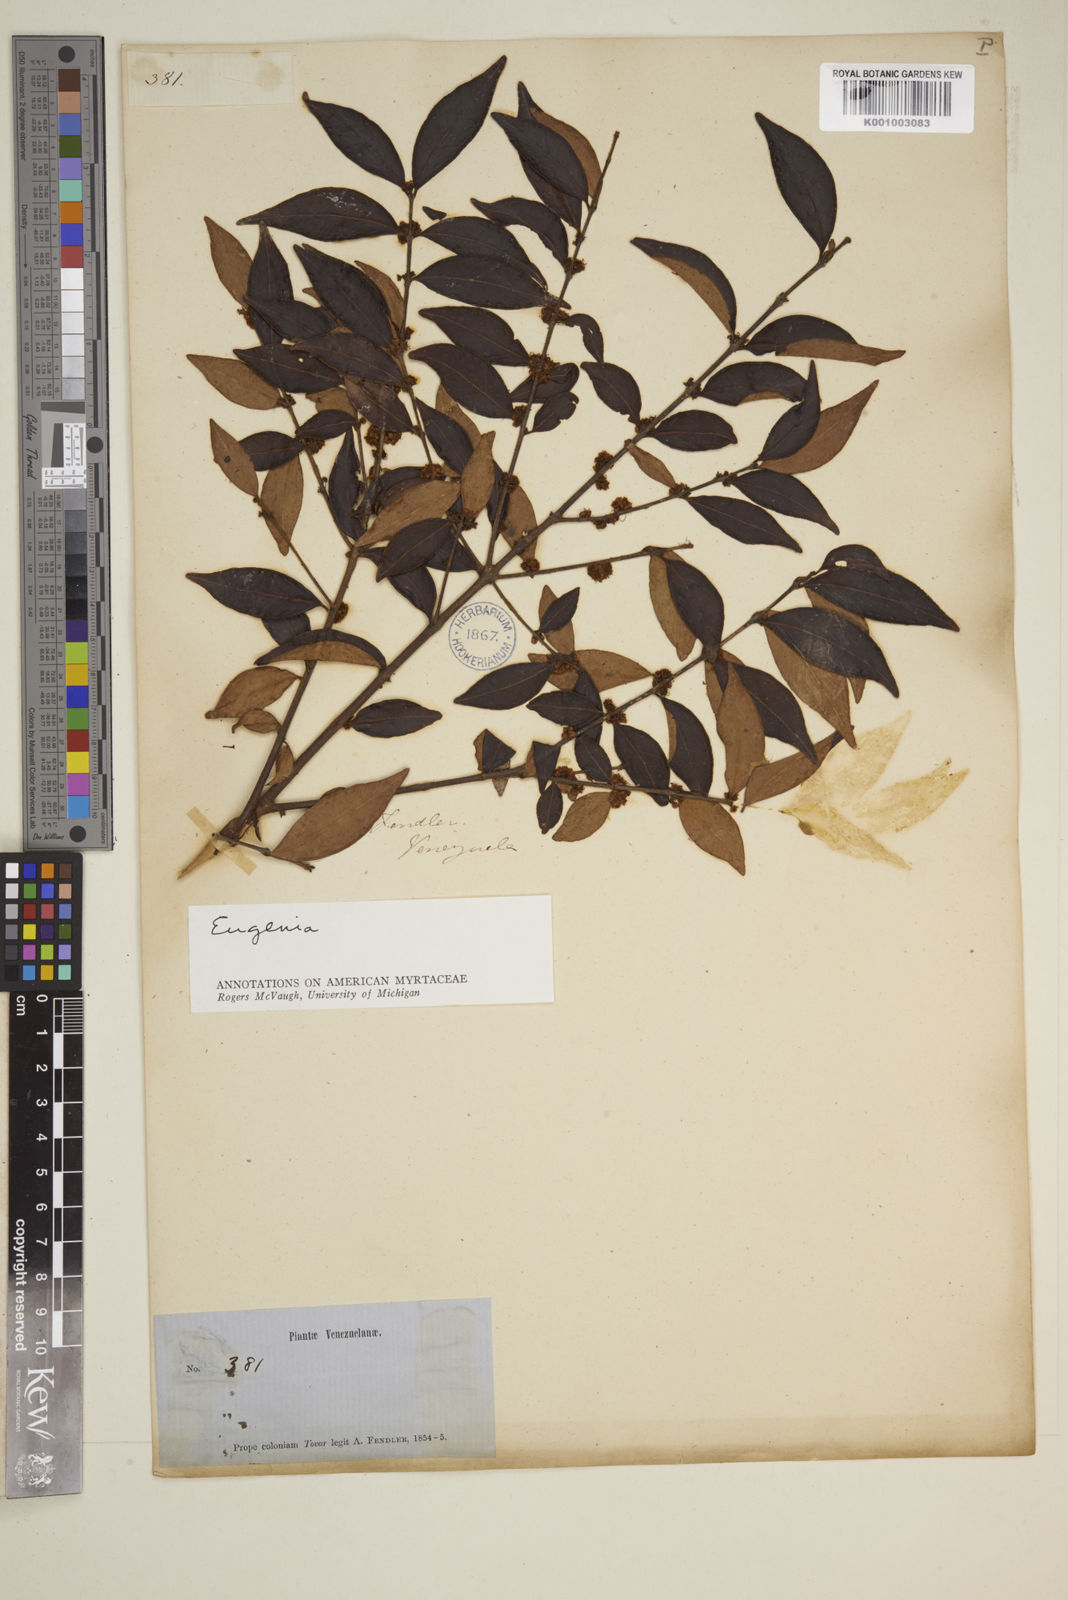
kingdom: Plantae
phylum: Tracheophyta
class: Magnoliopsida
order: Myrtales
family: Myrtaceae
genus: Eugenia
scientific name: Eugenia
